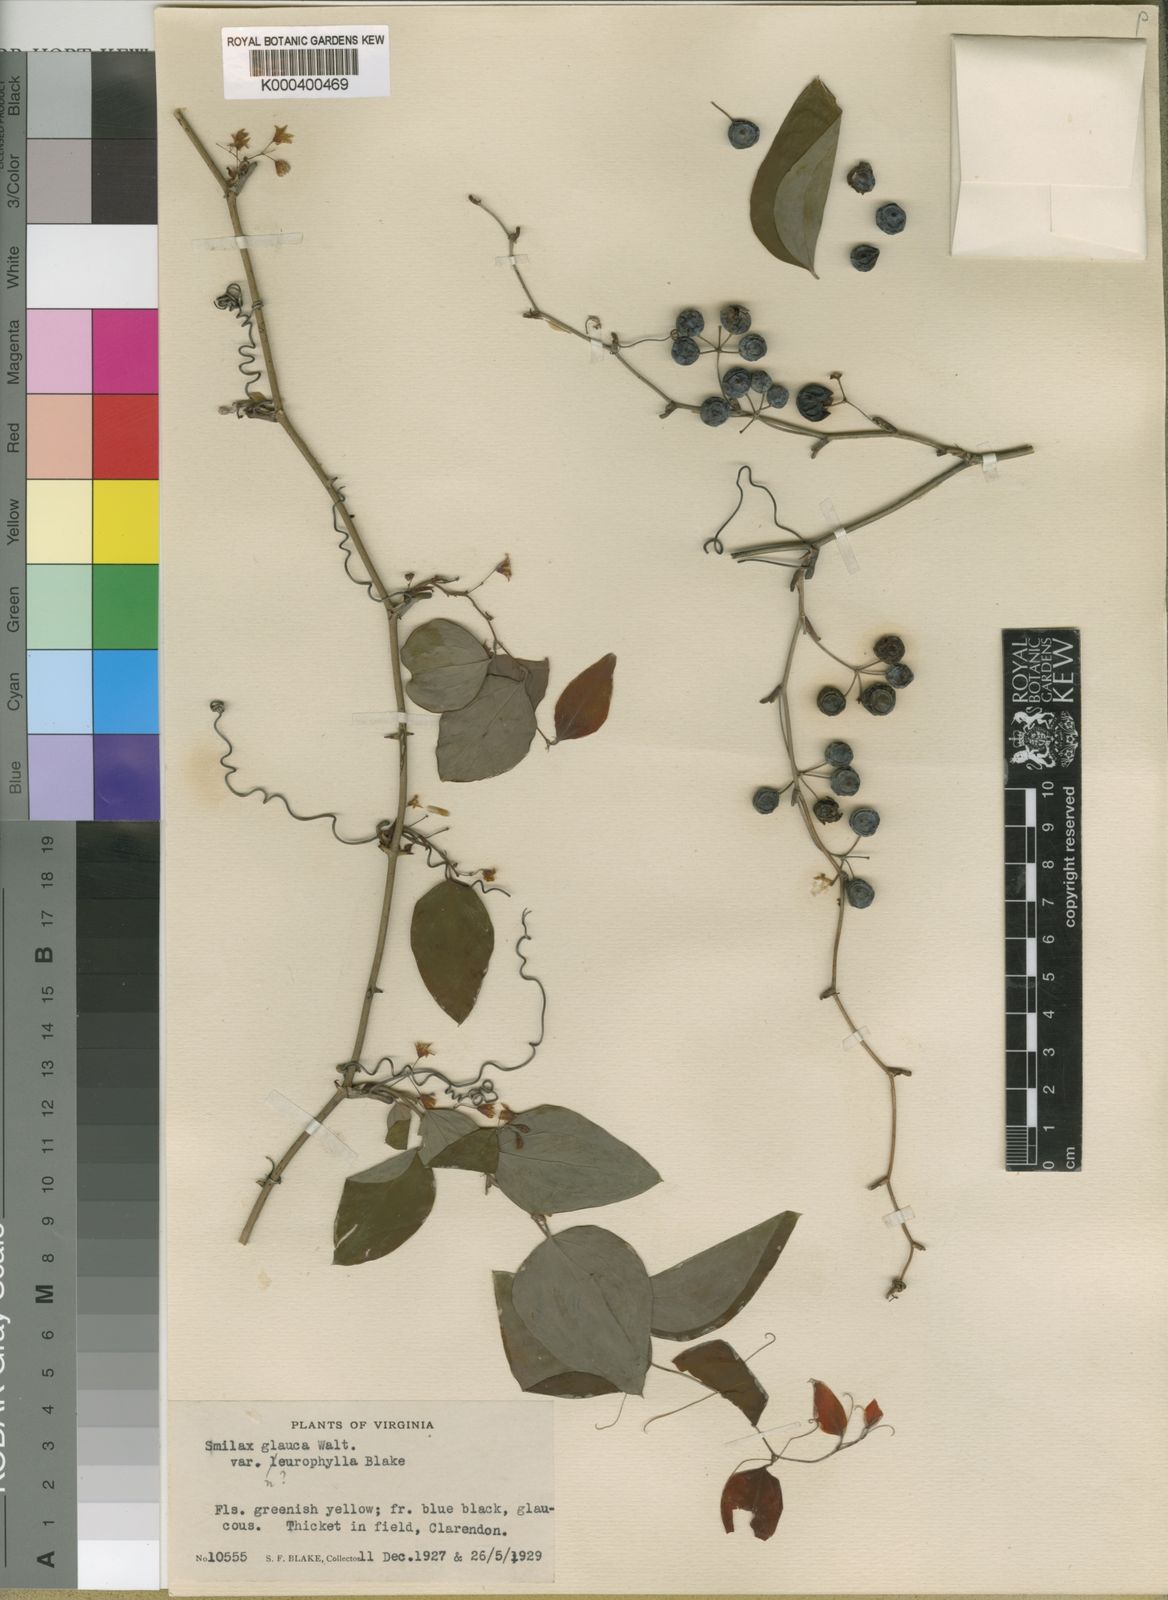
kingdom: Plantae
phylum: Tracheophyta
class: Liliopsida
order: Liliales
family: Smilacaceae
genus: Smilax
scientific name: Smilax glauca
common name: Cat greenbrier
